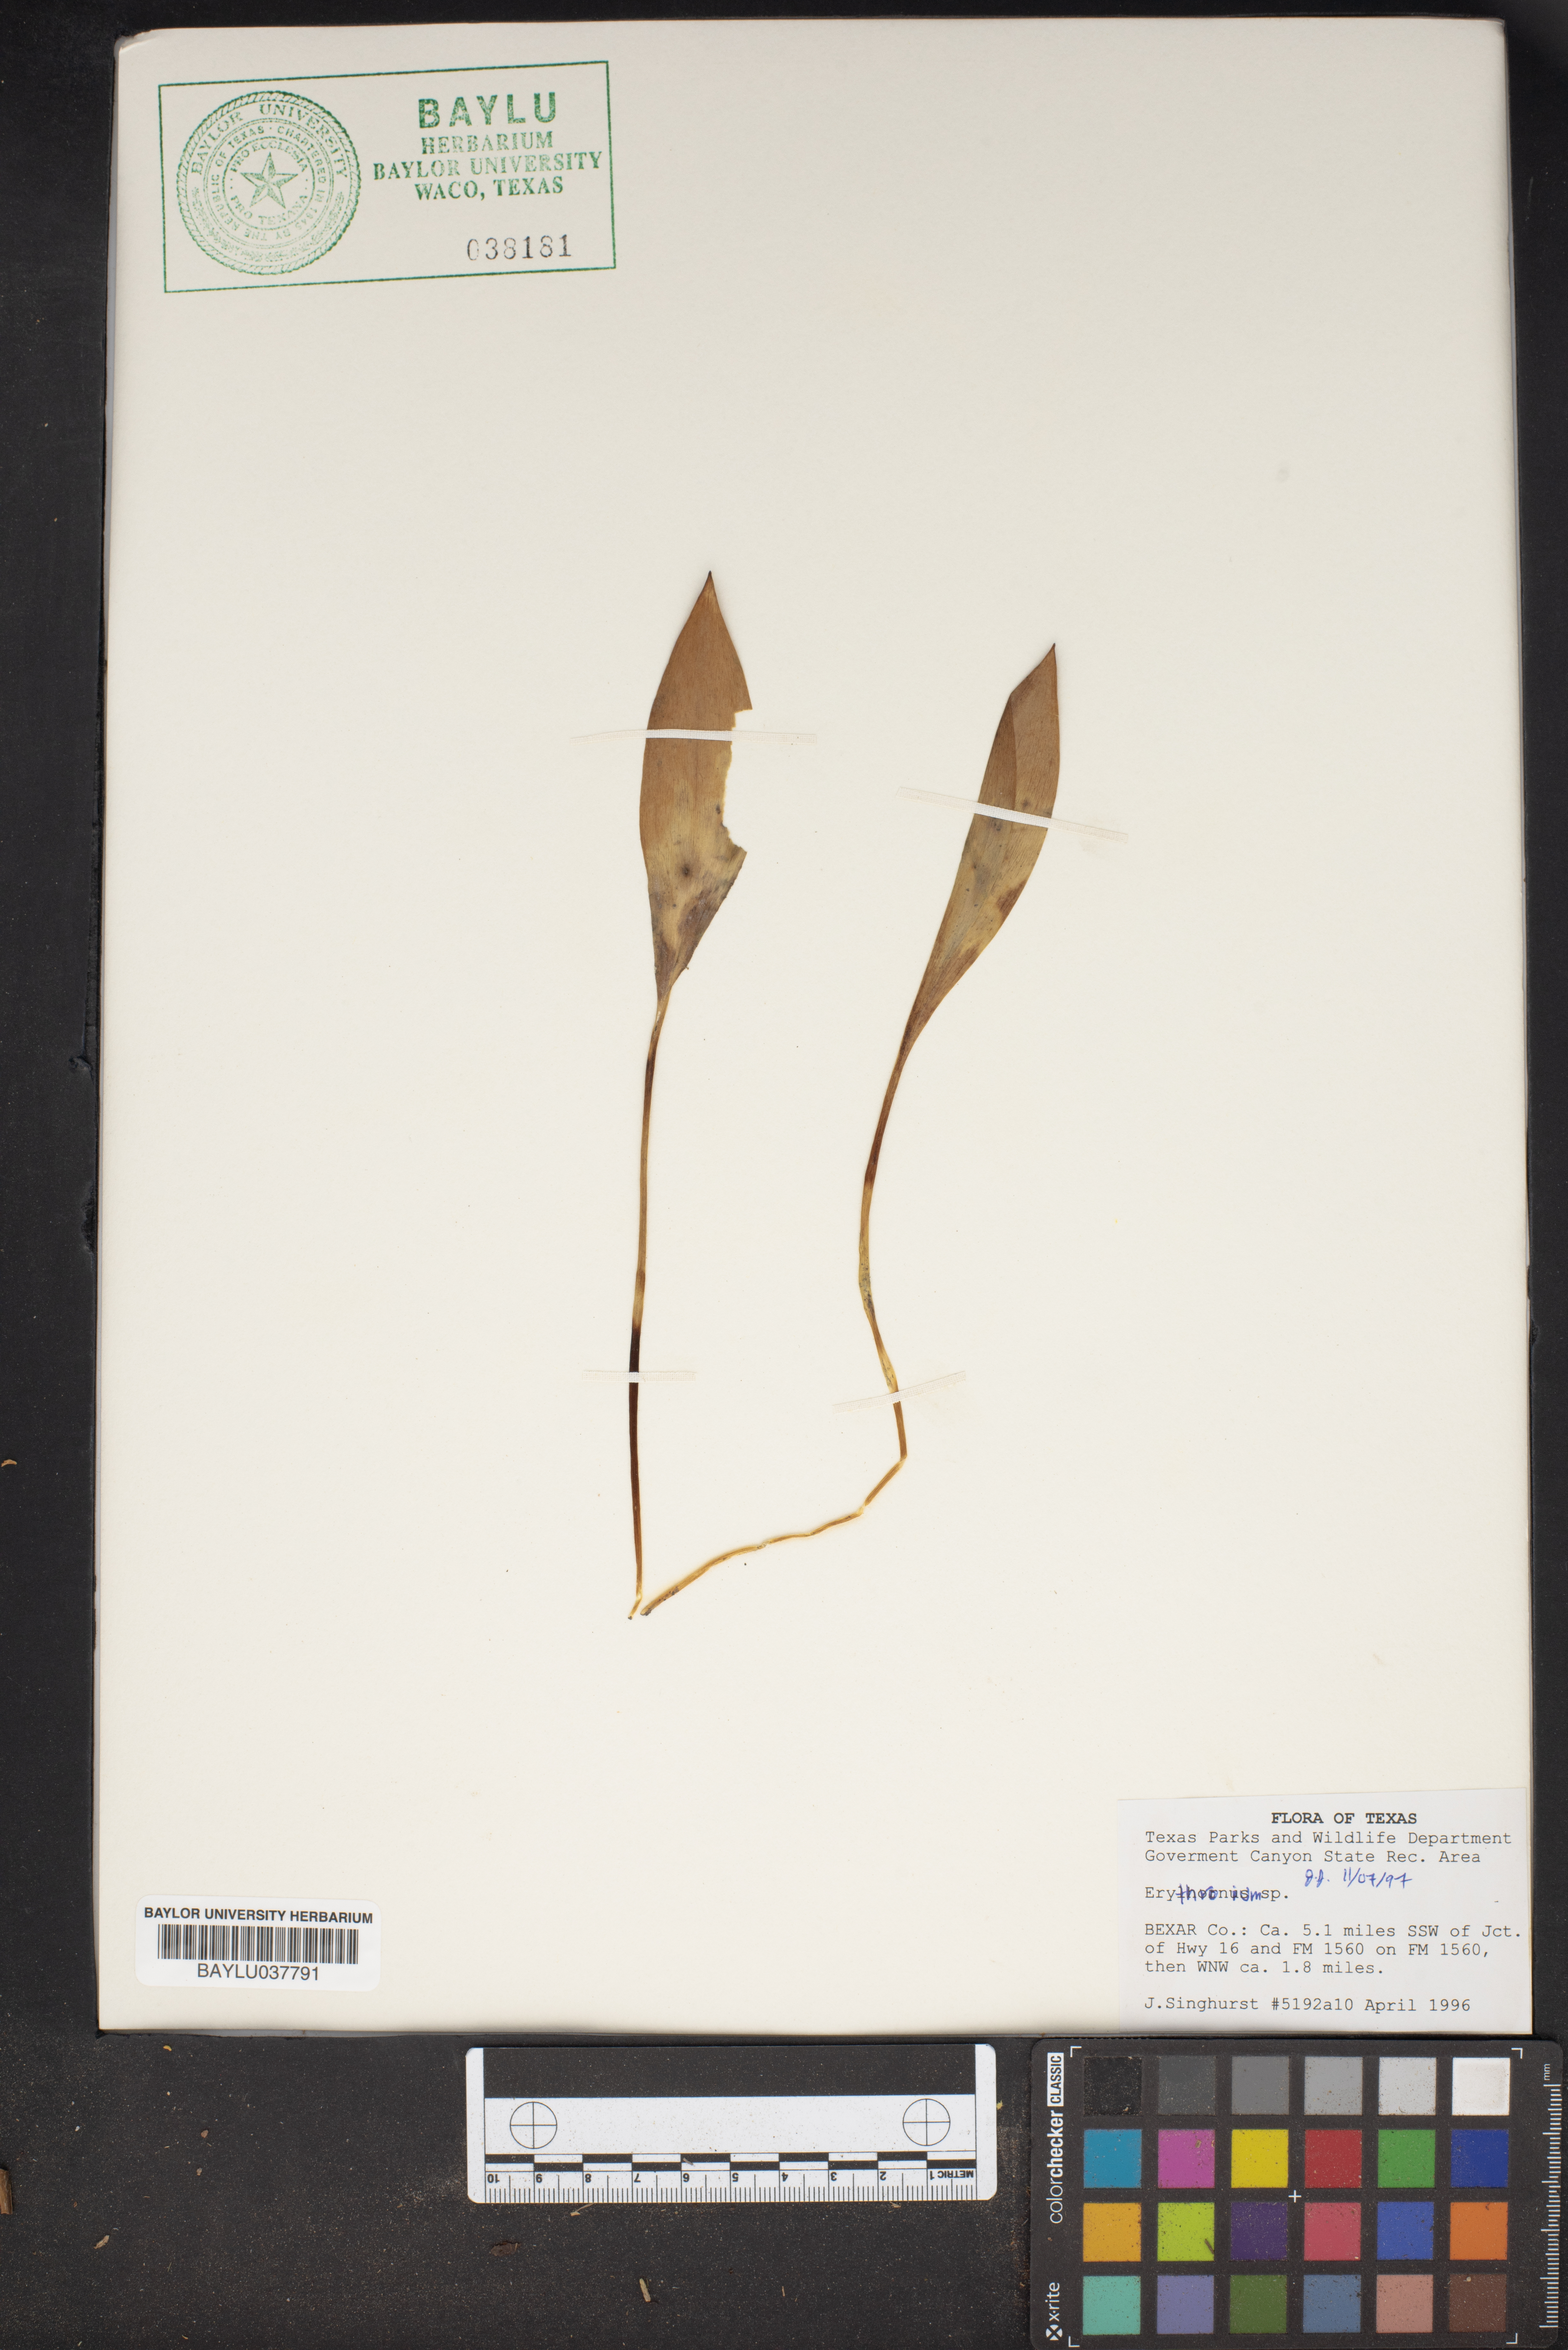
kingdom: Plantae
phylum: Tracheophyta
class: Liliopsida
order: Liliales
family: Liliaceae
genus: Erythronium
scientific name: Erythronium
